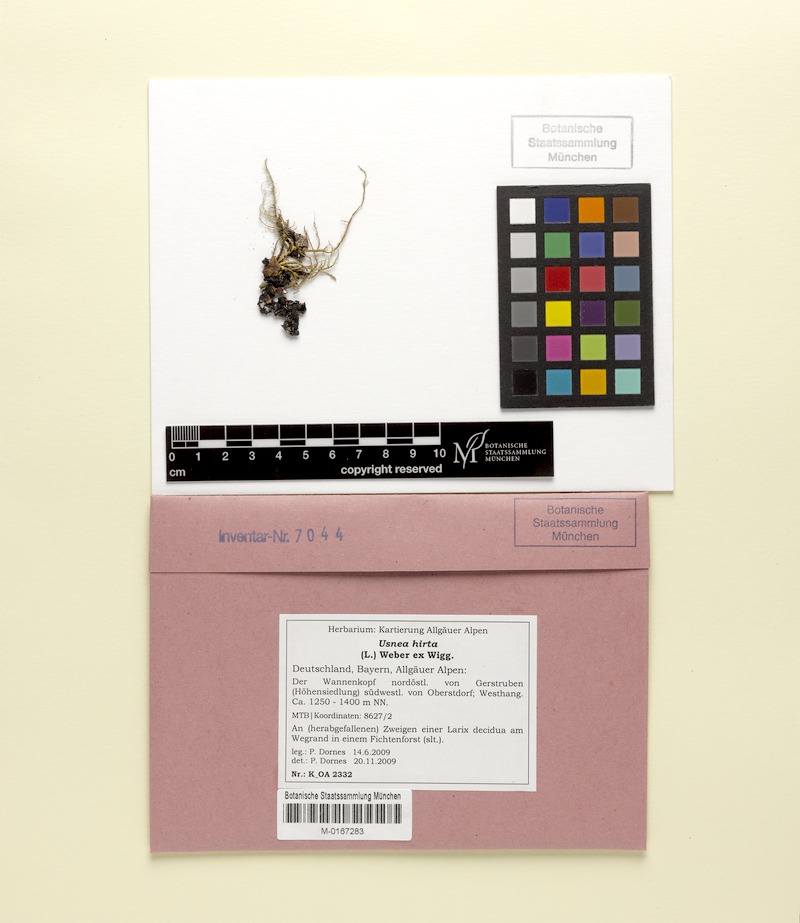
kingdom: Fungi
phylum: Ascomycota
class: Lecanoromycetes
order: Lecanorales
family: Parmeliaceae
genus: Usnea
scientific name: Usnea hirta
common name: Bristly beard lichen
